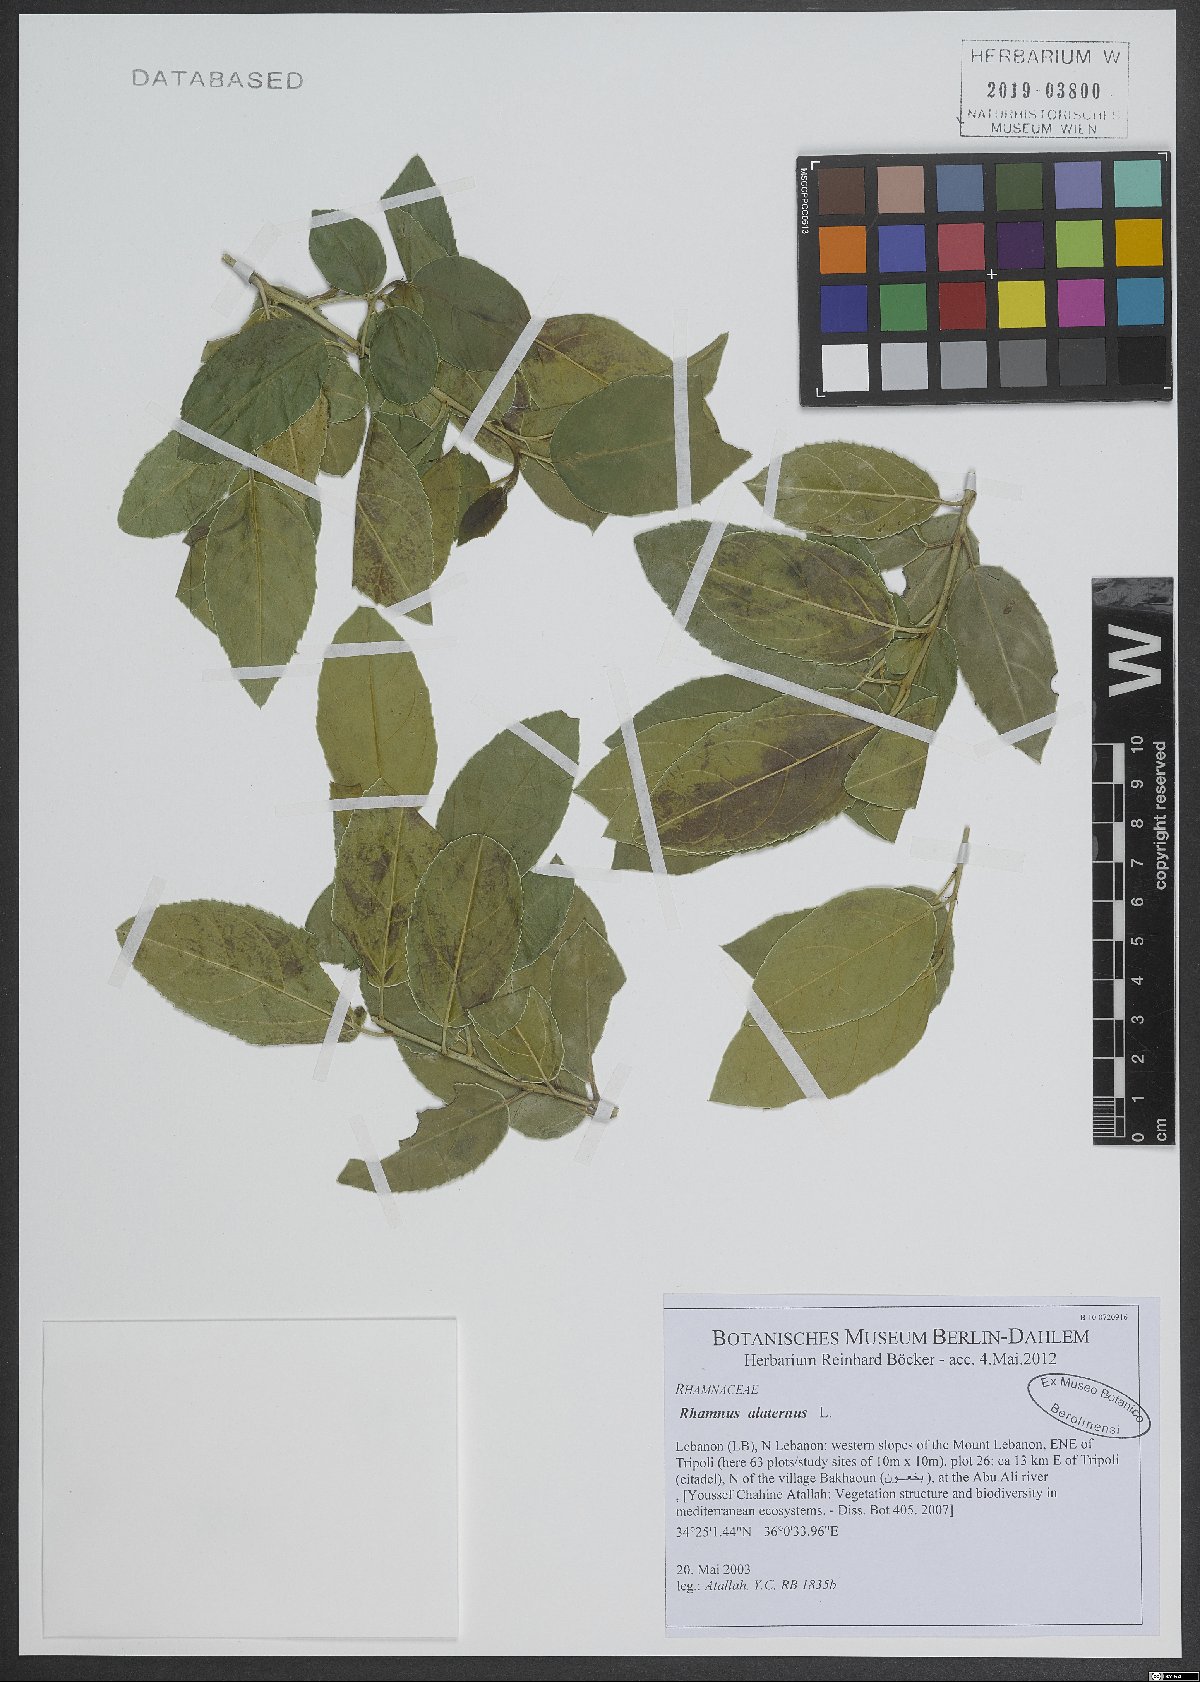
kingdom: Plantae
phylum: Tracheophyta
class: Magnoliopsida
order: Rosales
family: Rhamnaceae
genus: Rhamnus
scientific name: Rhamnus alaternus
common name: Mediterranean buckthorn
